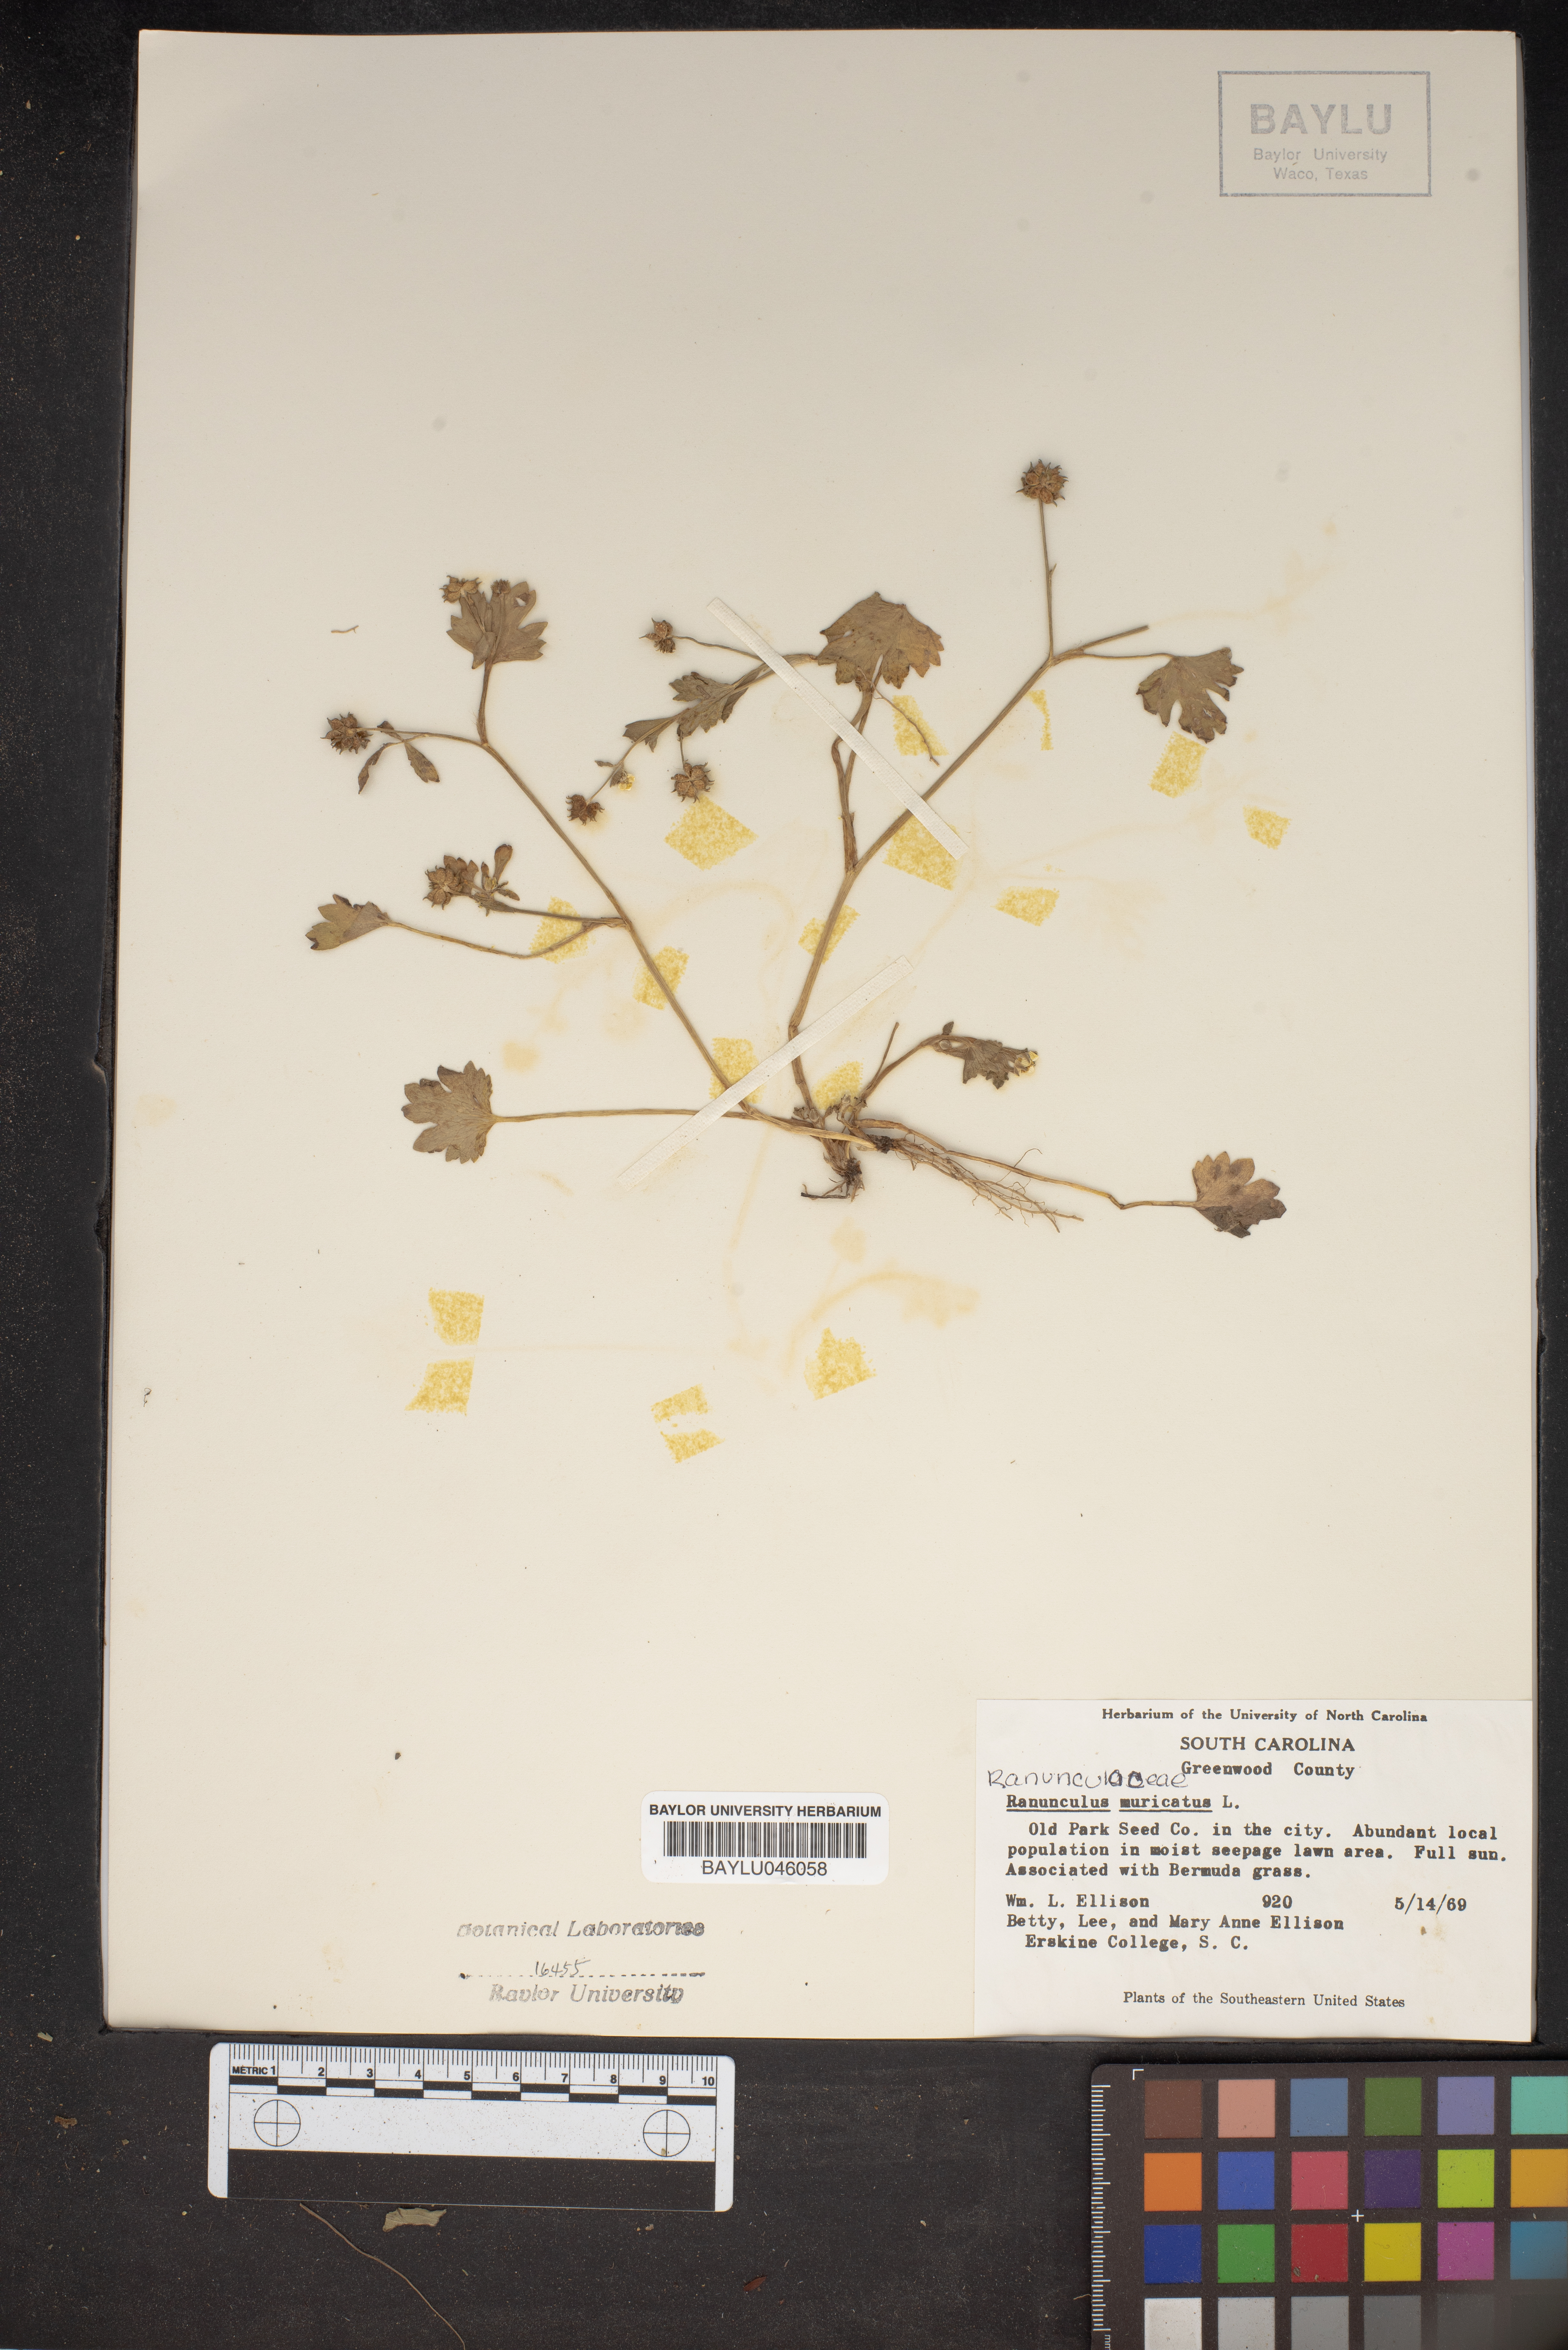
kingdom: Plantae
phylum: Tracheophyta
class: Magnoliopsida
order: Ranunculales
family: Ranunculaceae
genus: Ranunculus
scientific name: Ranunculus muricatus
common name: Rough-fruited buttercup
